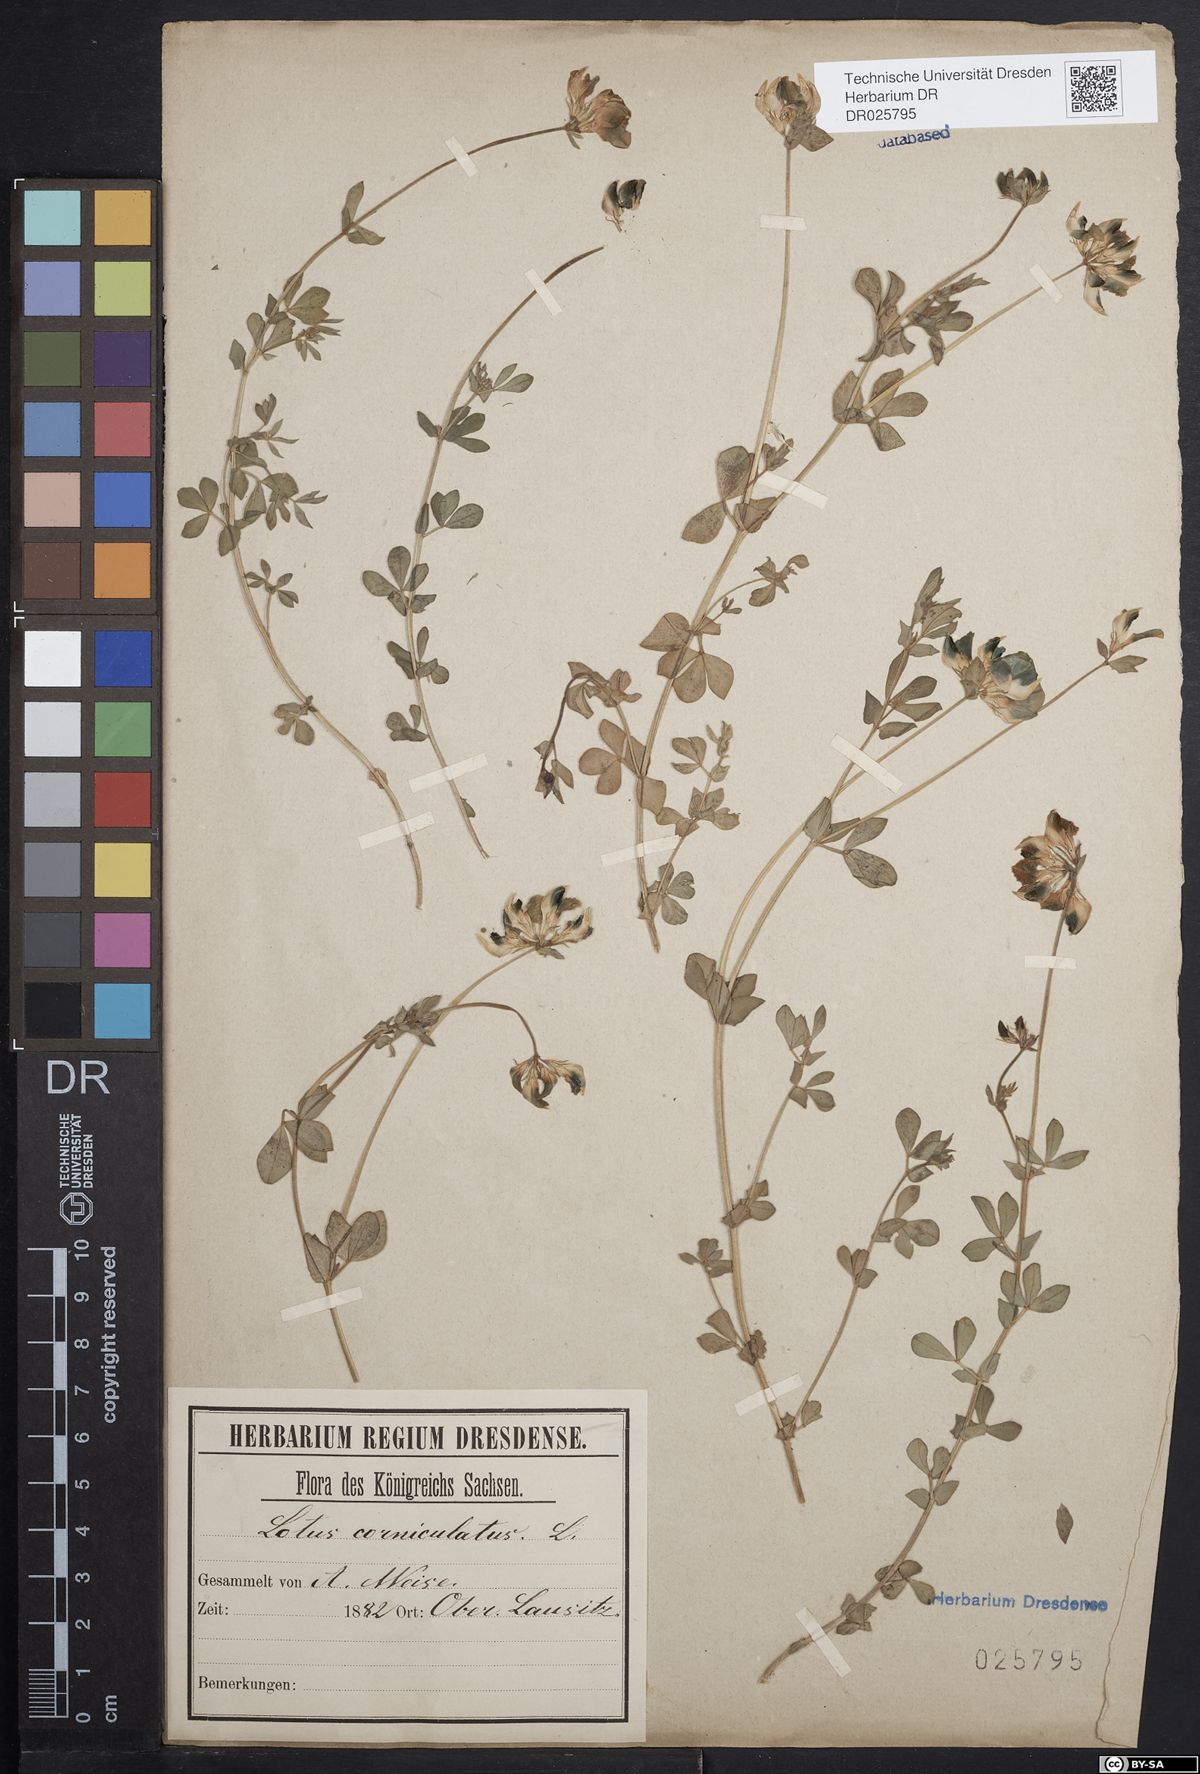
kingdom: Plantae
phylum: Tracheophyta
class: Magnoliopsida
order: Fabales
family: Fabaceae
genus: Lotus
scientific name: Lotus corniculatus
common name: Common bird's-foot-trefoil
